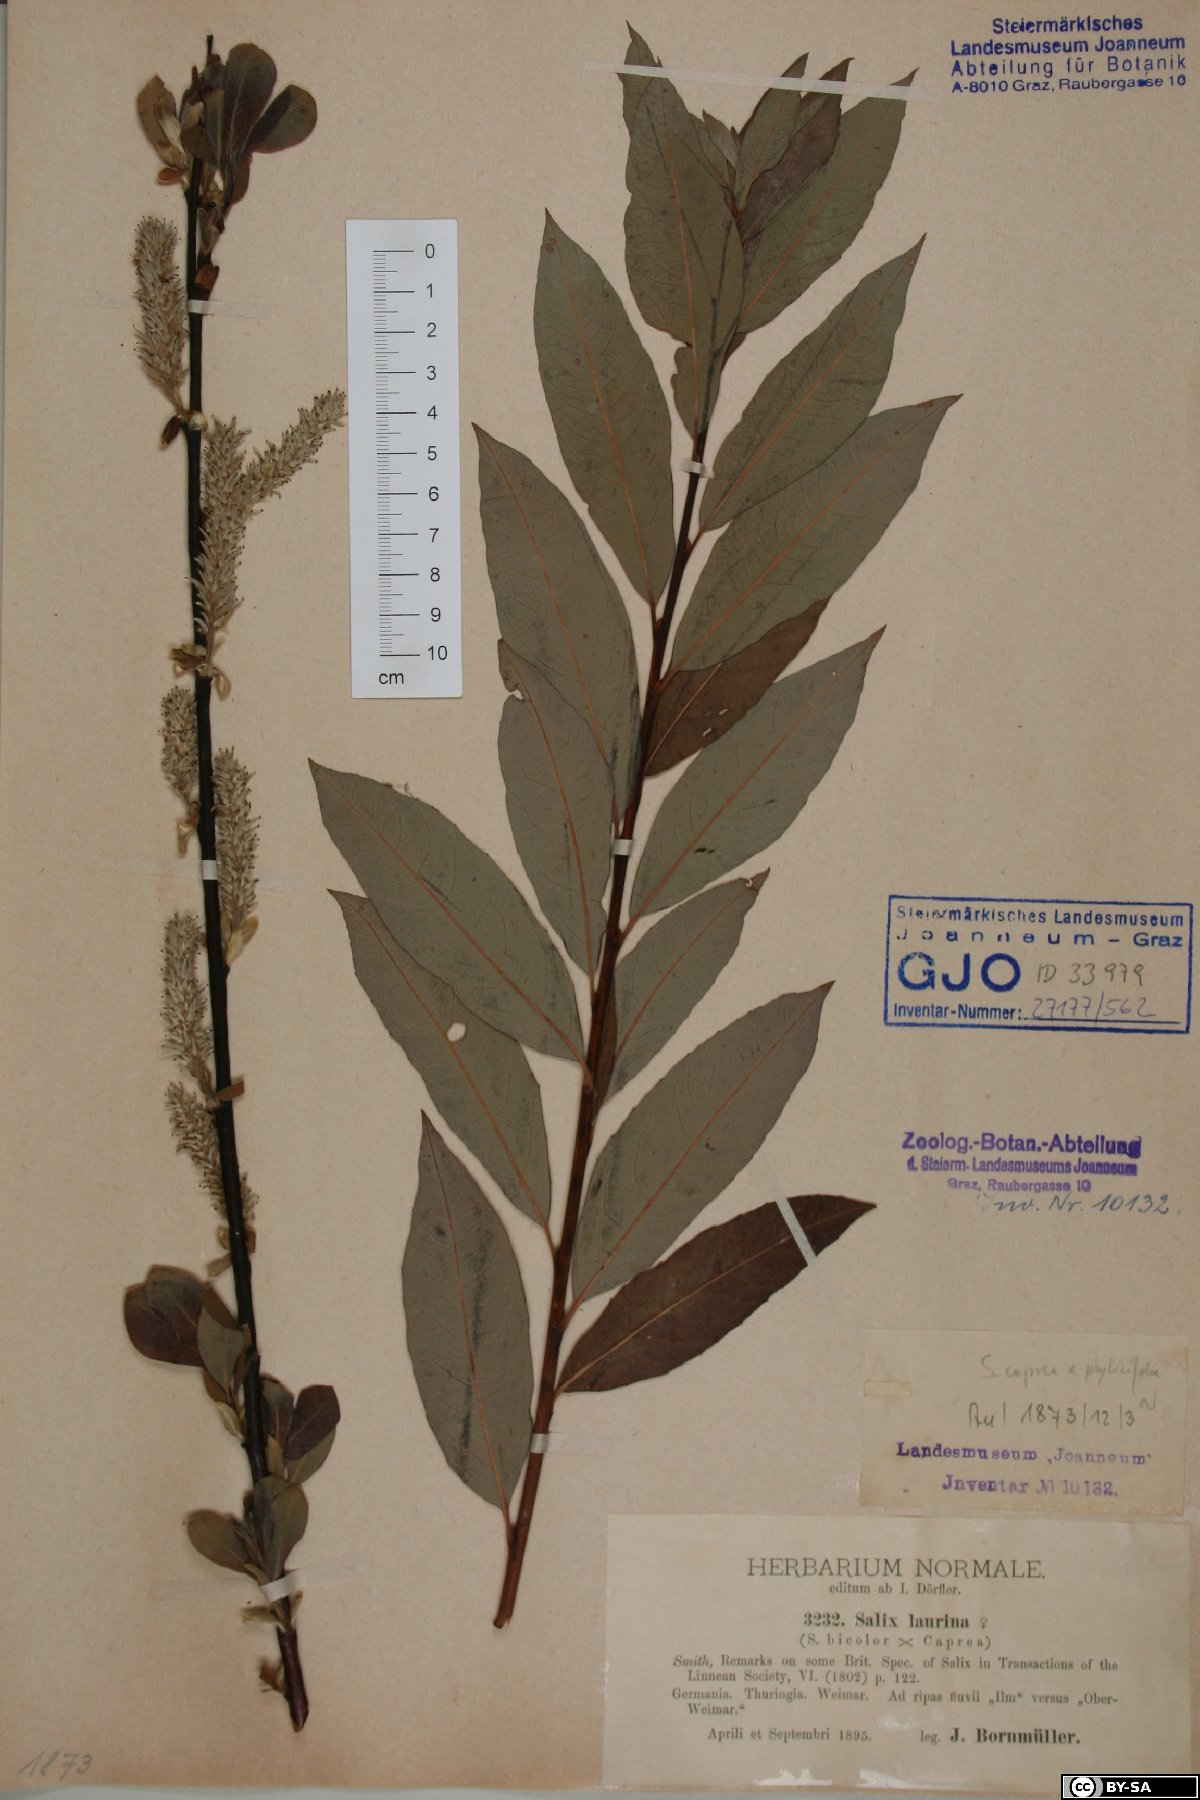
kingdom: Plantae
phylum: Tracheophyta
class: Magnoliopsida
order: Malpighiales
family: Salicaceae
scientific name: Salicaceae
